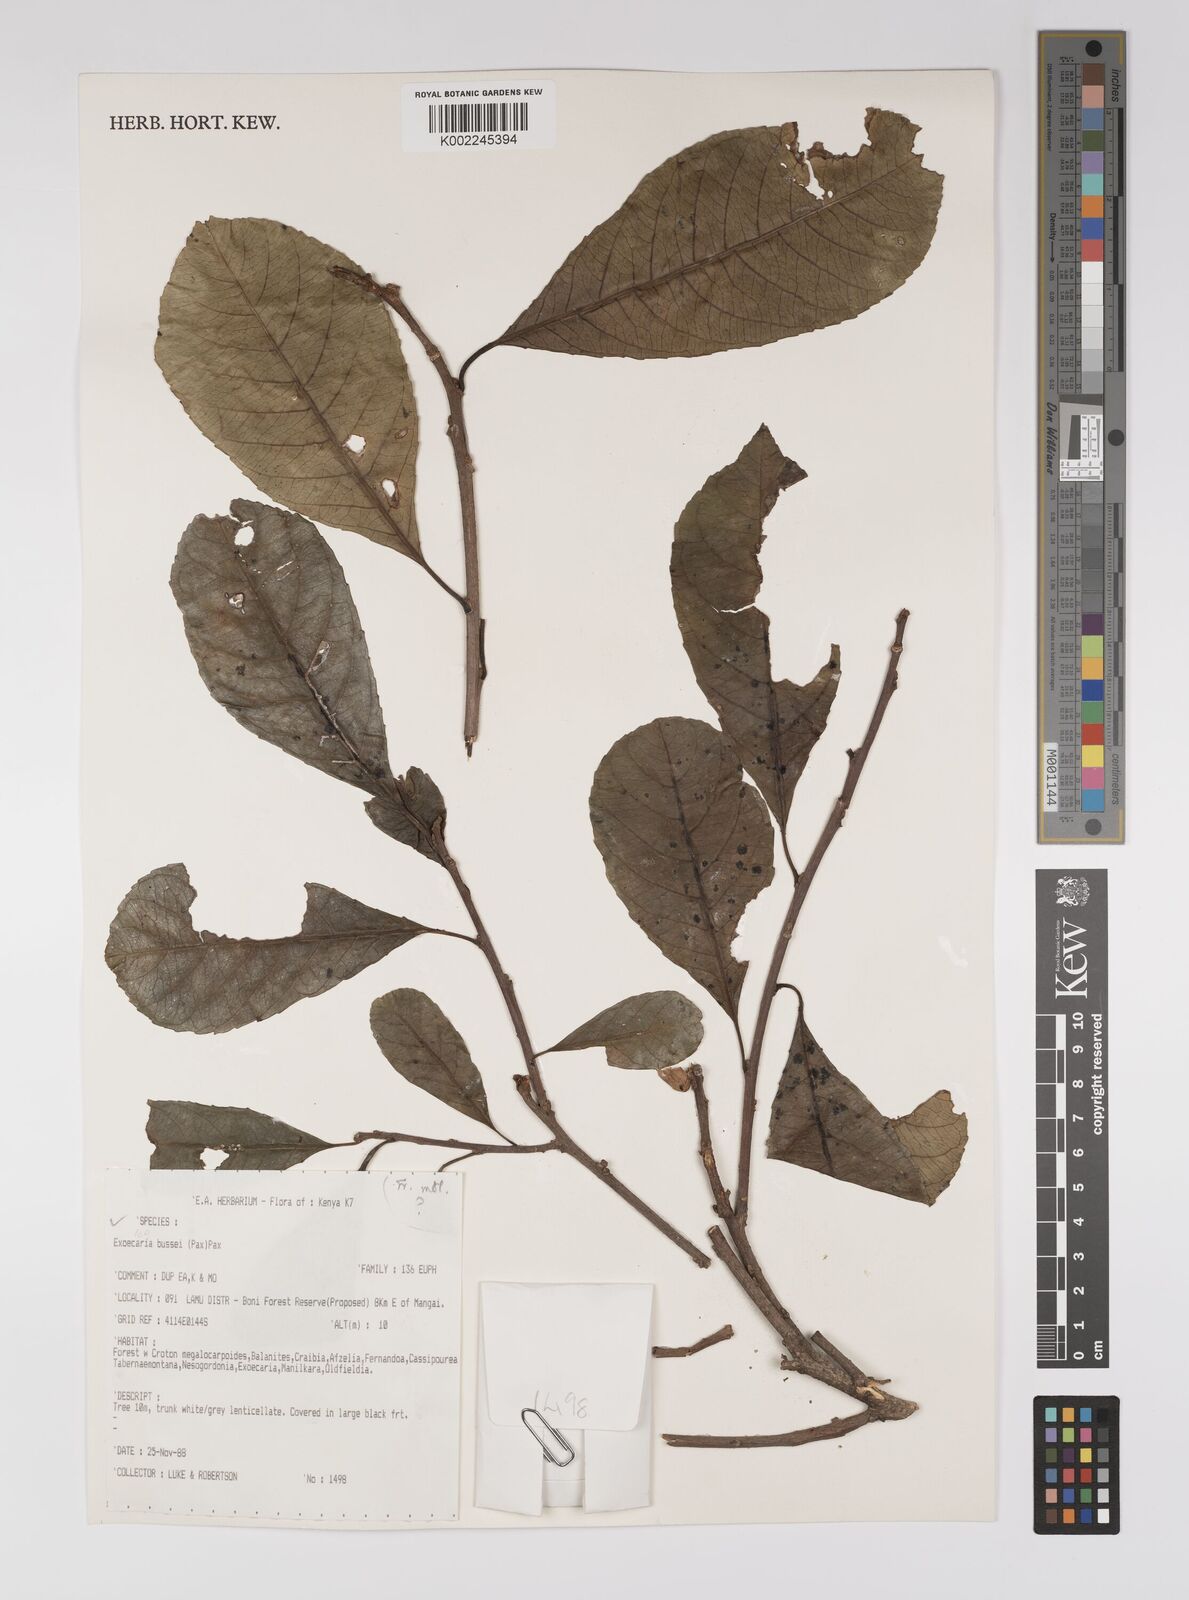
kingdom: Plantae
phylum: Tracheophyta
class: Magnoliopsida
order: Malpighiales
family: Euphorbiaceae
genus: Excoecaria
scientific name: Excoecaria bussei
